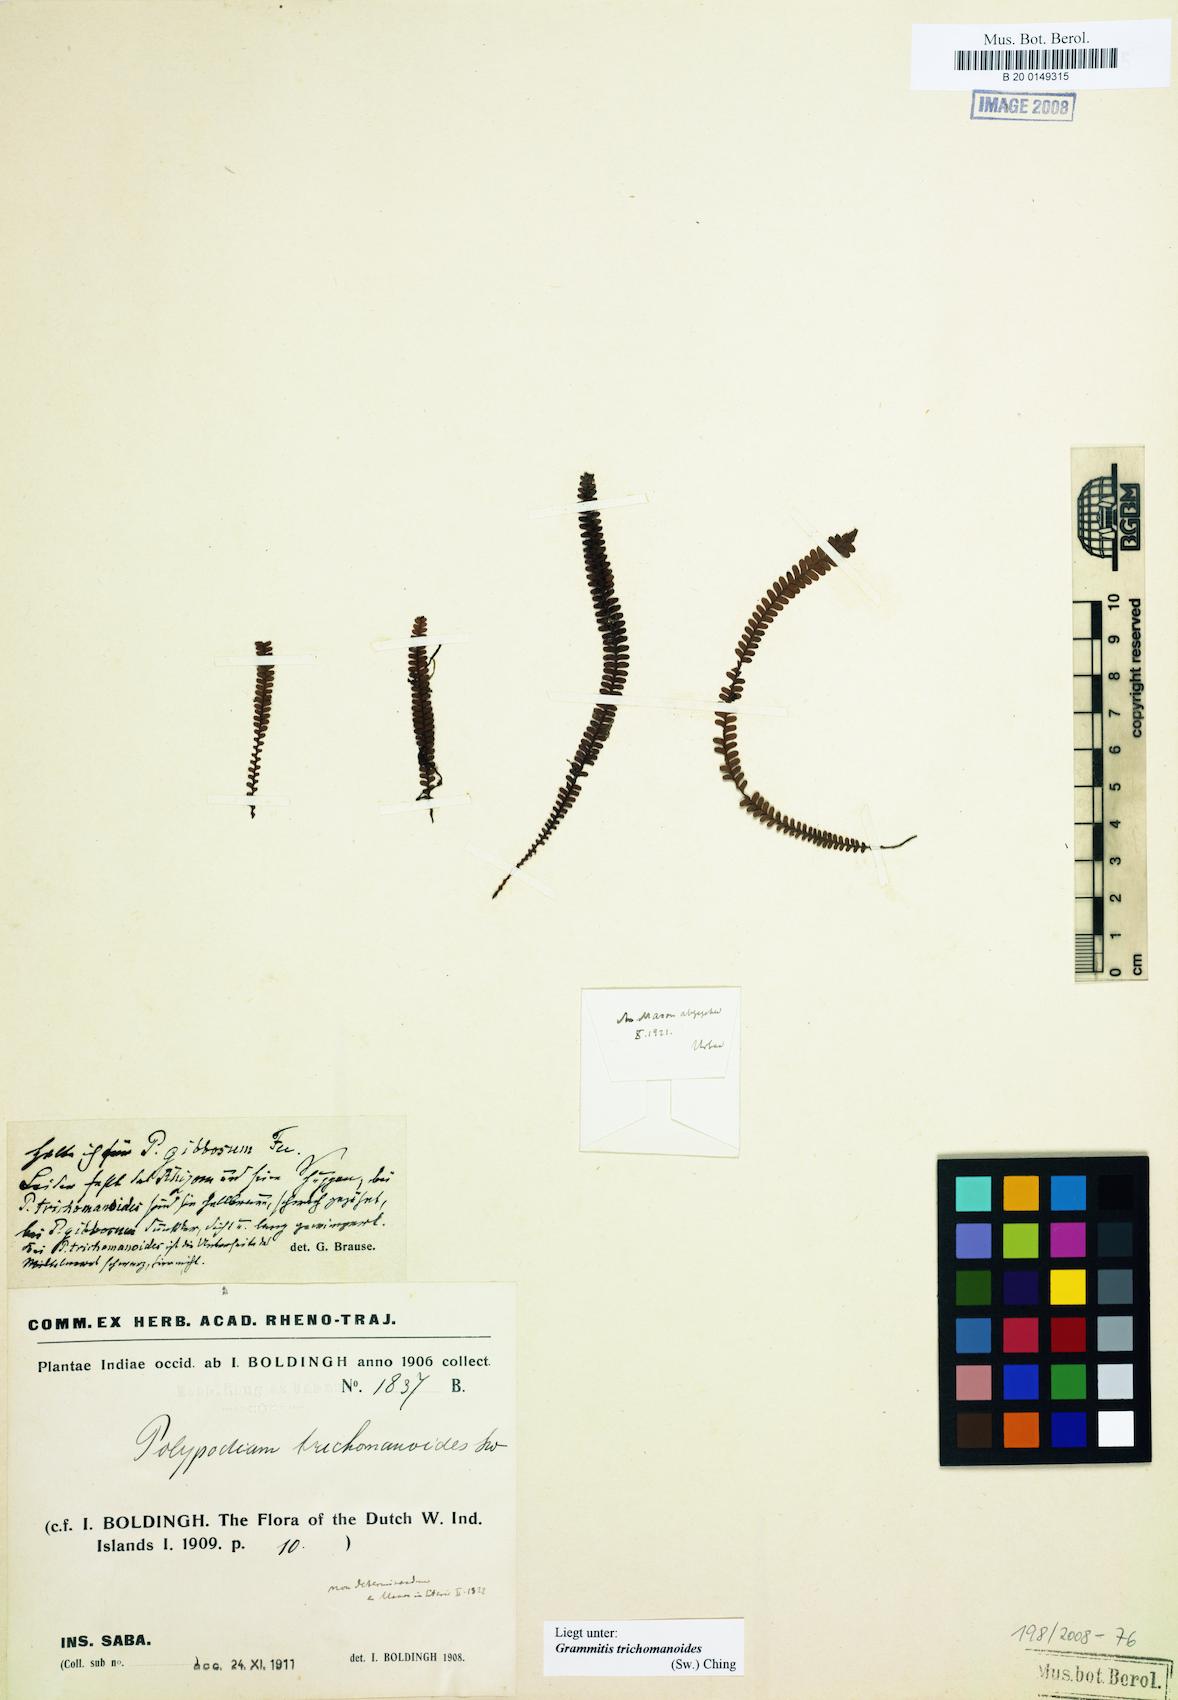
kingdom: Plantae
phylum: Tracheophyta
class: Polypodiopsida
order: Polypodiales
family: Polypodiaceae
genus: Moranopteris
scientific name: Moranopteris taenifolia
